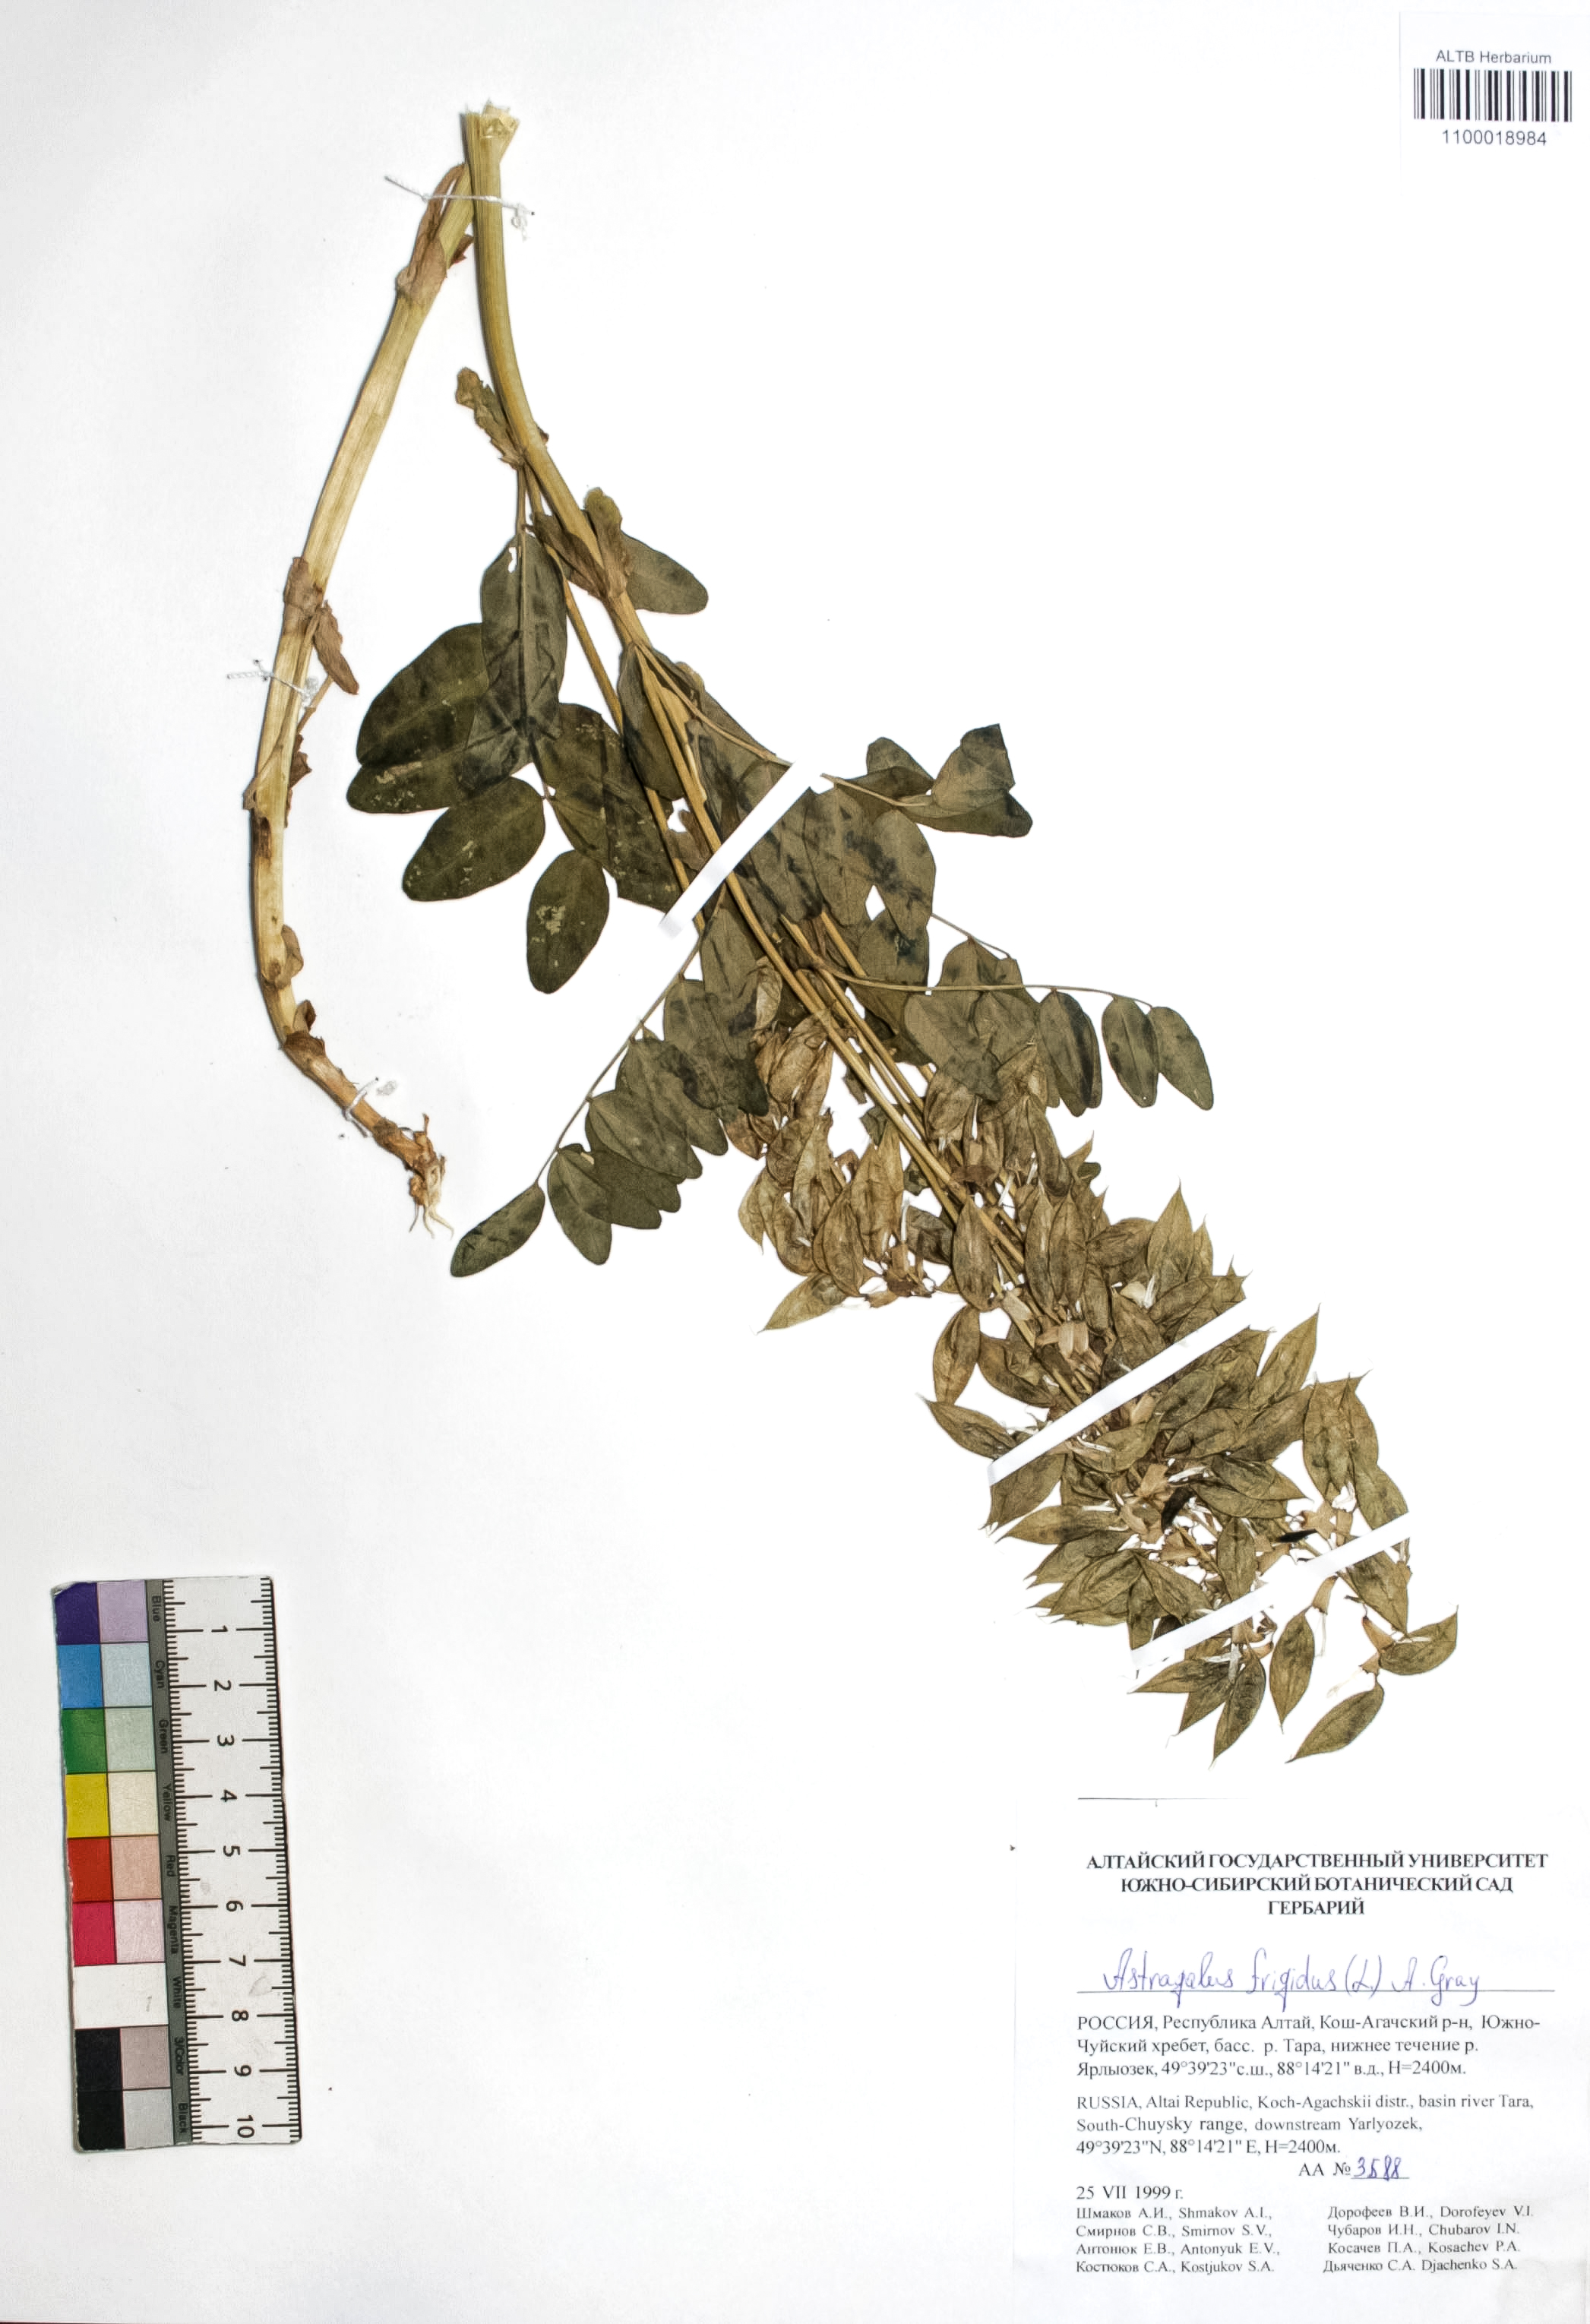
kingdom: Plantae
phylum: Tracheophyta
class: Magnoliopsida
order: Fabales
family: Fabaceae
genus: Astragalus
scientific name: Astragalus frigidus
